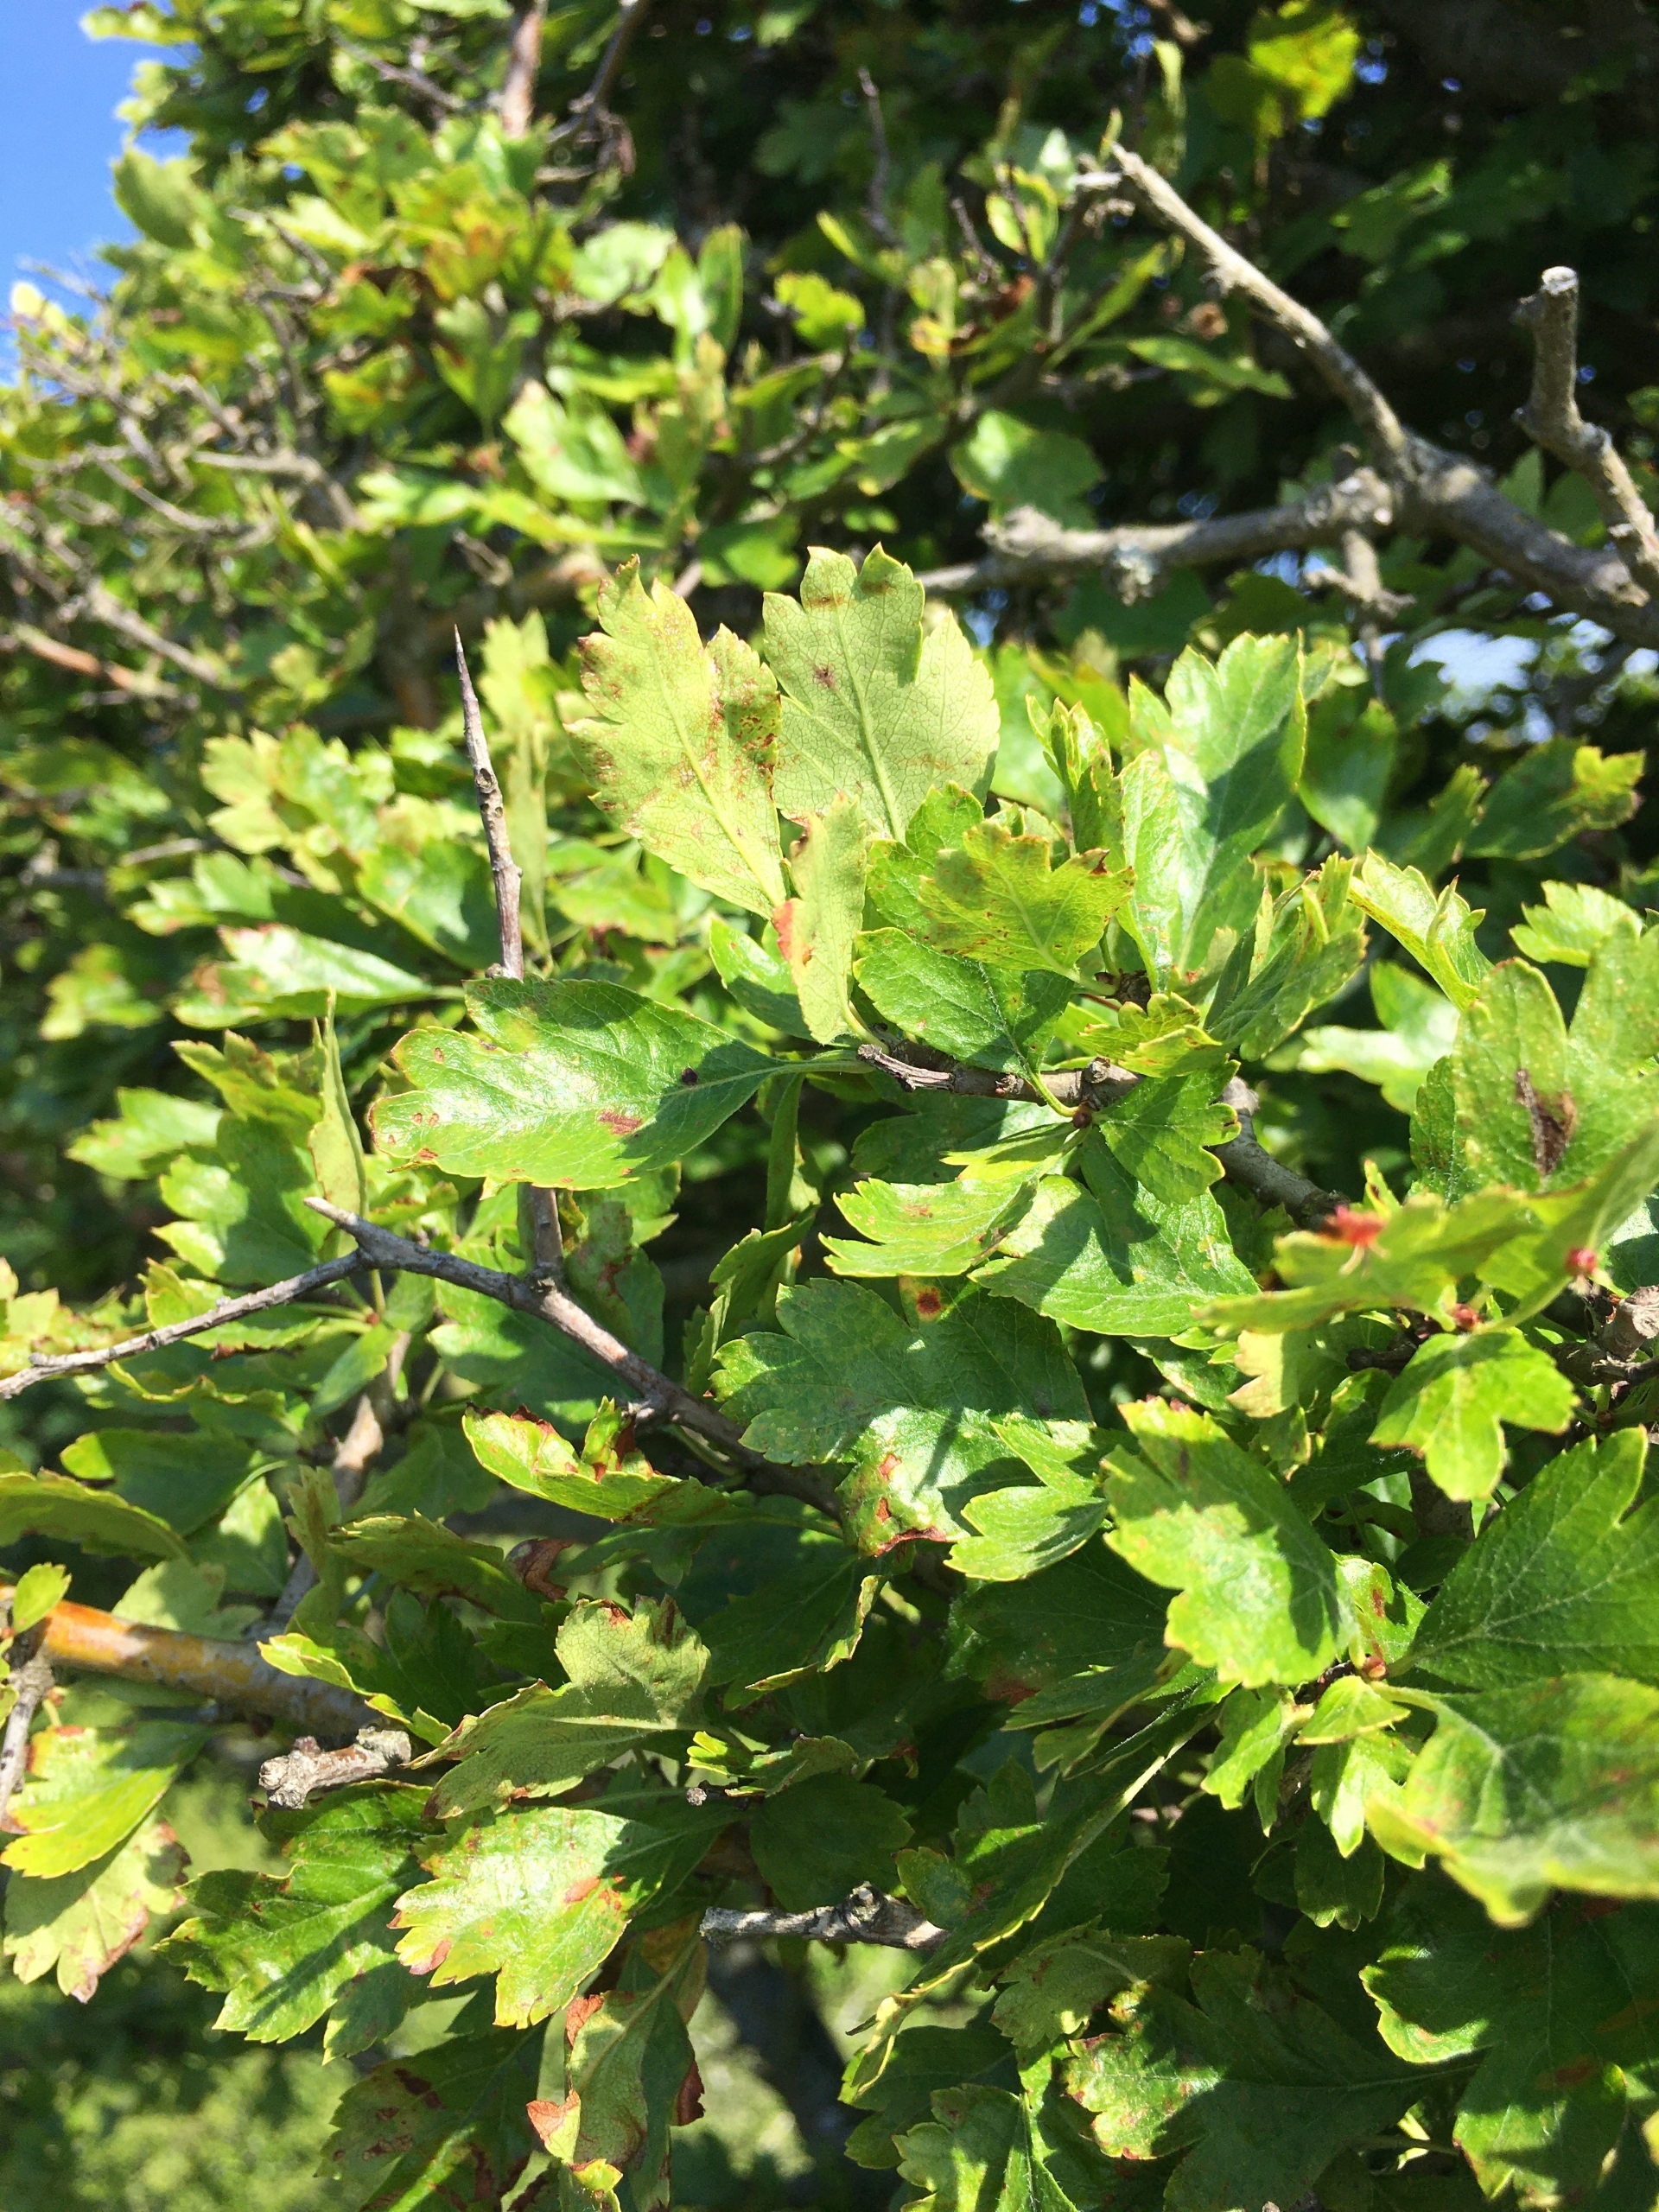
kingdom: Plantae
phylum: Tracheophyta
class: Magnoliopsida
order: Rosales
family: Rosaceae
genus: Crataegus
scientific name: Crataegus laevigata
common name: Almindelig hvidtjørn
